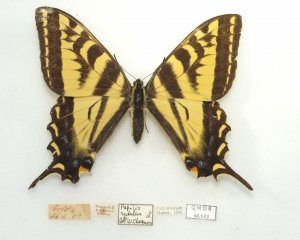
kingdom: Animalia
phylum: Arthropoda
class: Insecta
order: Lepidoptera
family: Papilionidae
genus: Pterourus
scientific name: Pterourus rutulus
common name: Western Tiger Swallowtail
